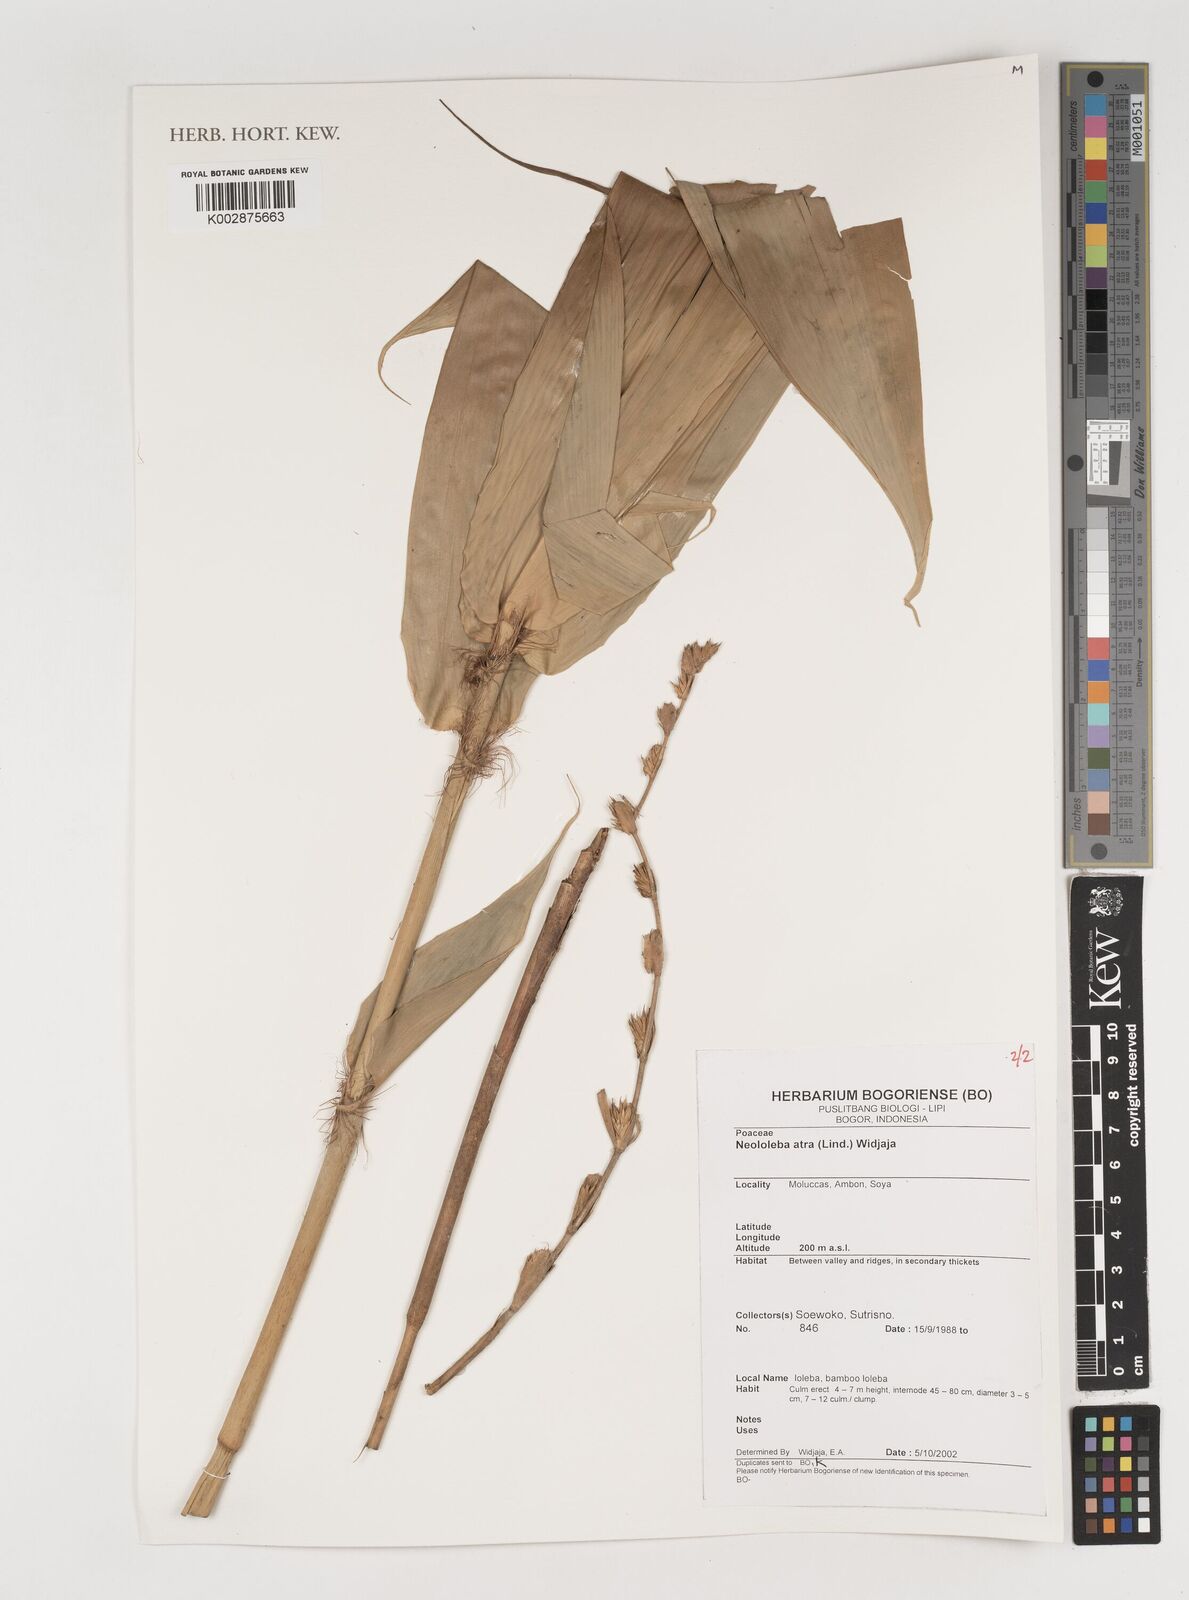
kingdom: Plantae
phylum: Tracheophyta
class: Liliopsida
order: Poales
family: Poaceae
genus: Neololeba
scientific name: Neololeba atra
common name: Cape bamboo
